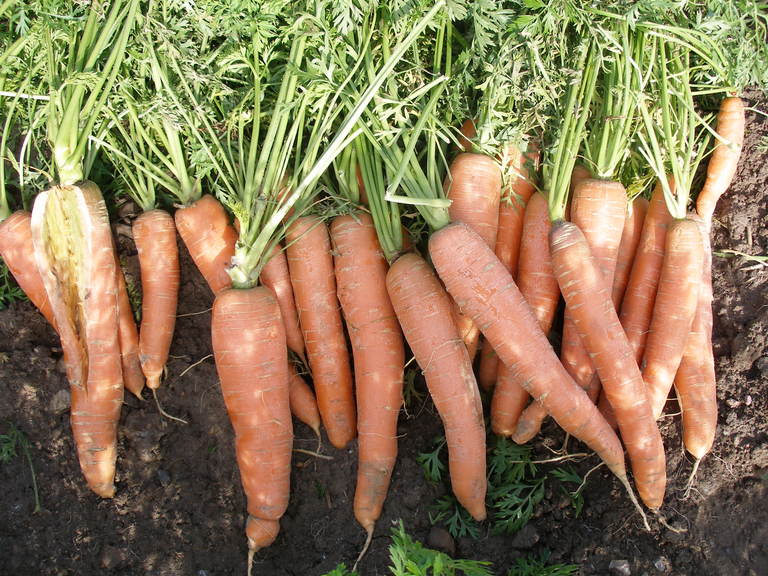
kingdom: Plantae
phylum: Tracheophyta
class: Magnoliopsida
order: Apiales
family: Apiaceae
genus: Daucus
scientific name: Daucus carota
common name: Wild carrot
